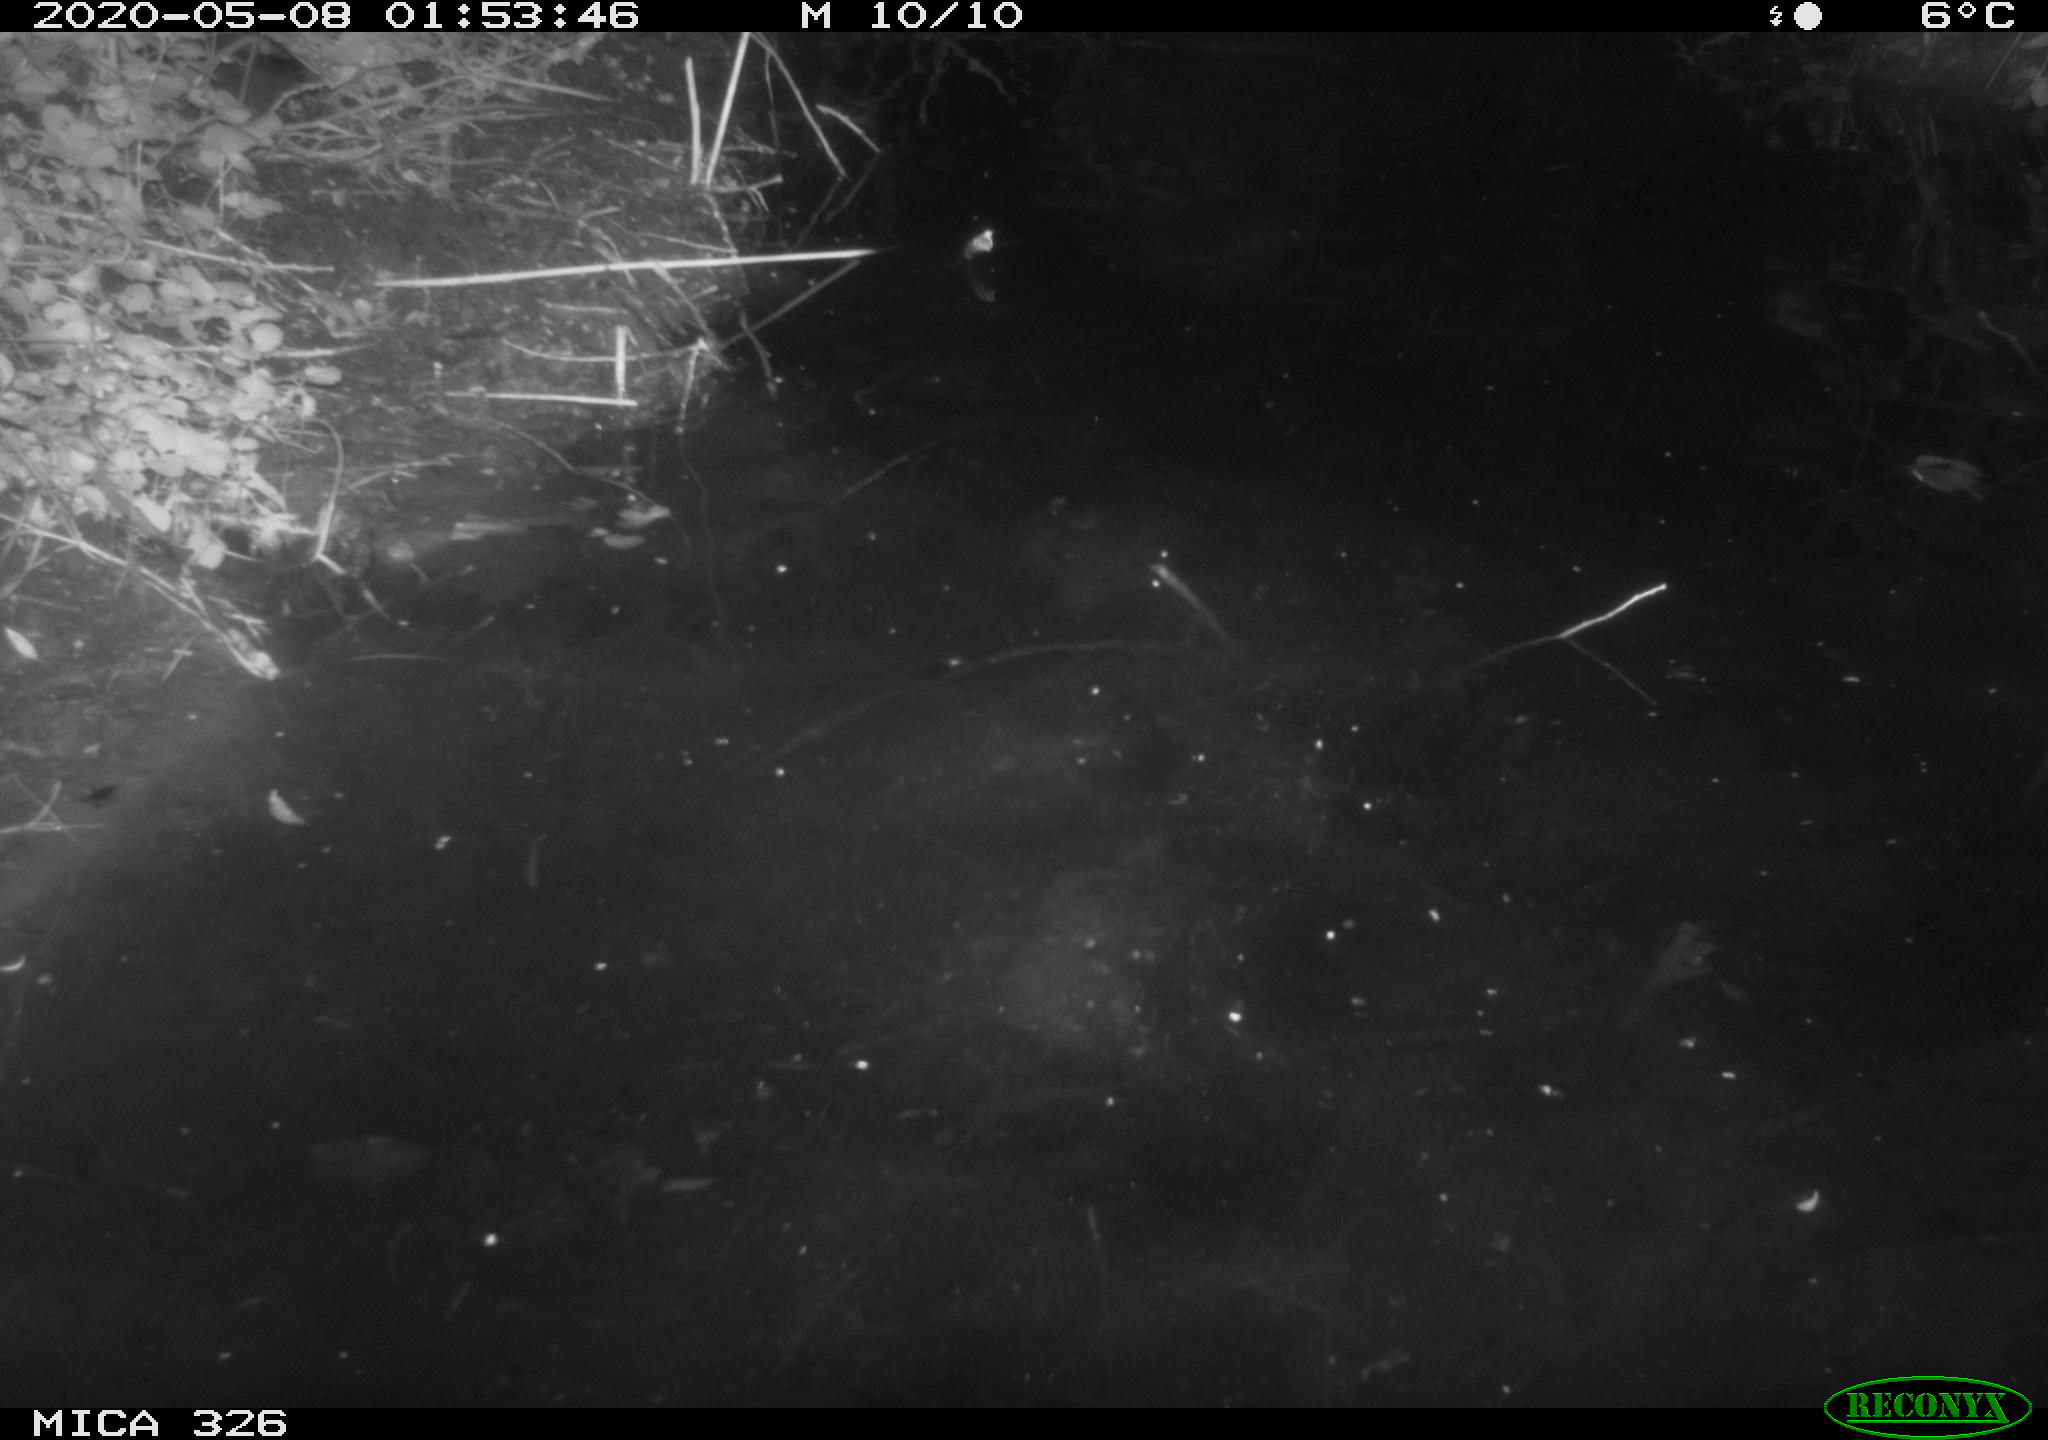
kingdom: Animalia
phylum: Chordata
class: Mammalia
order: Rodentia
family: Myocastoridae
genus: Myocastor
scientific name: Myocastor coypus
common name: Coypu
